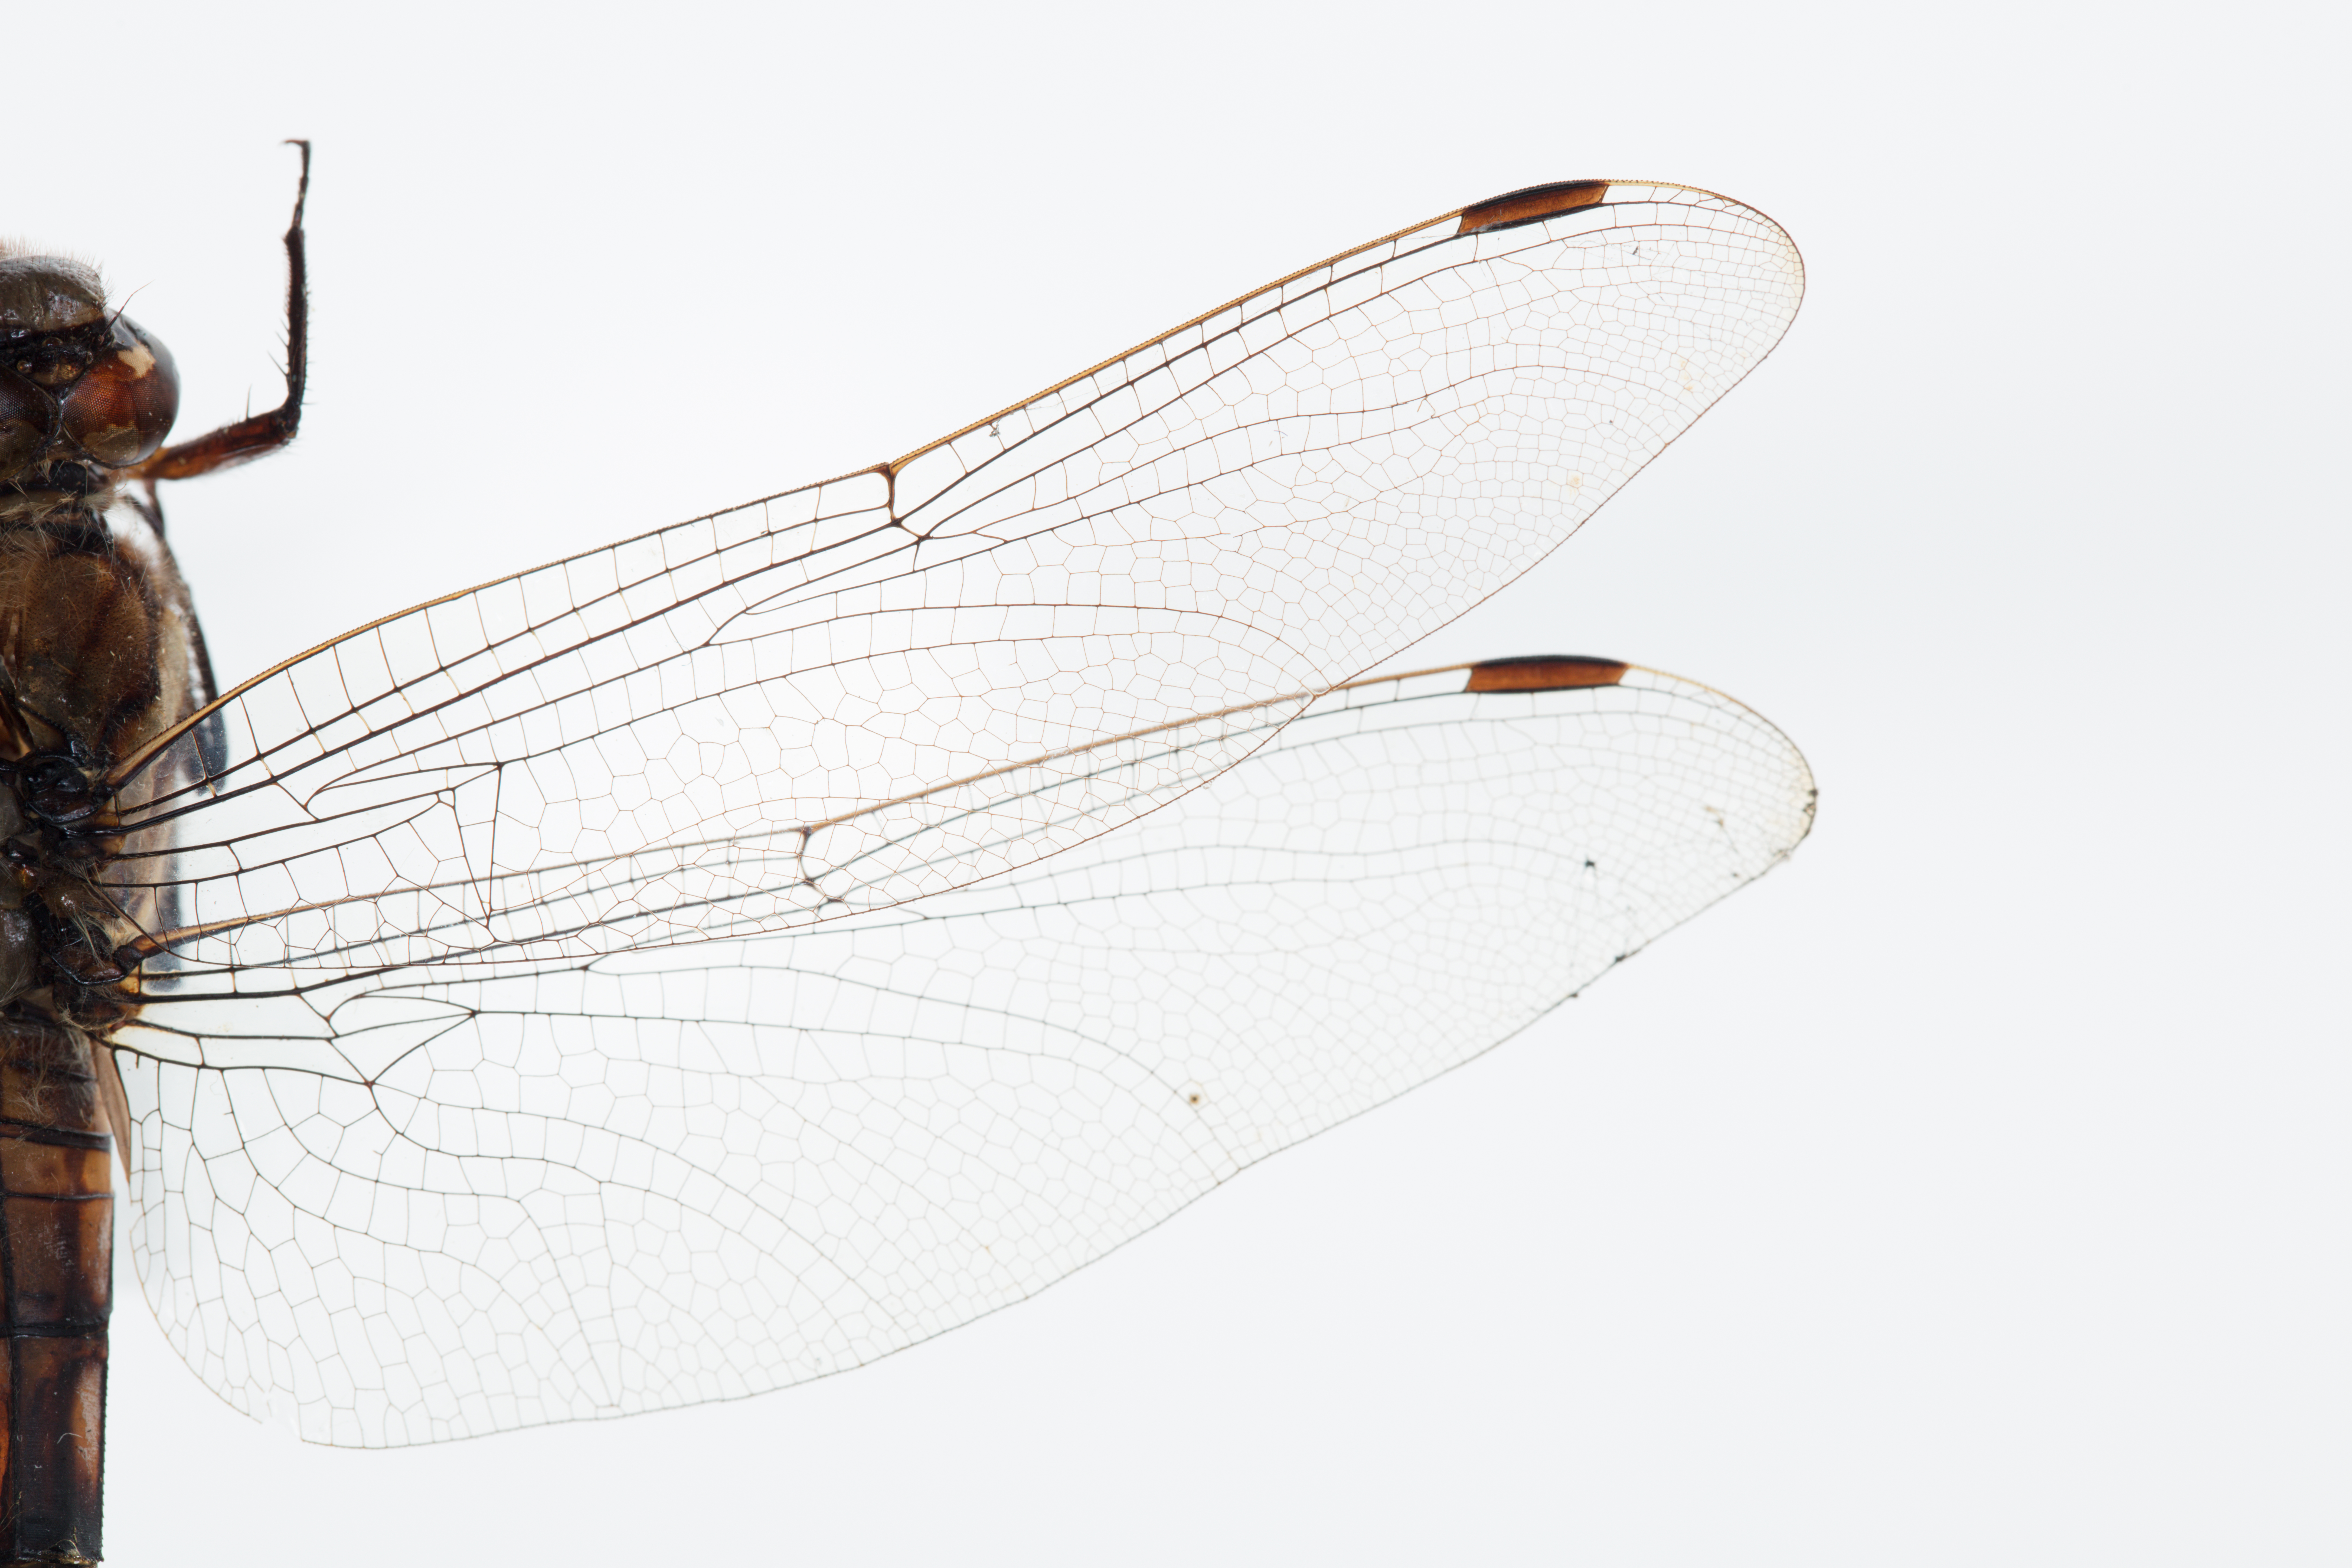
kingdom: Animalia
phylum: Arthropoda
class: Insecta
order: Odonata
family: Libellulidae
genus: Orthetrum
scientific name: Orthetrum albistylum
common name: White-tailed skimmer
